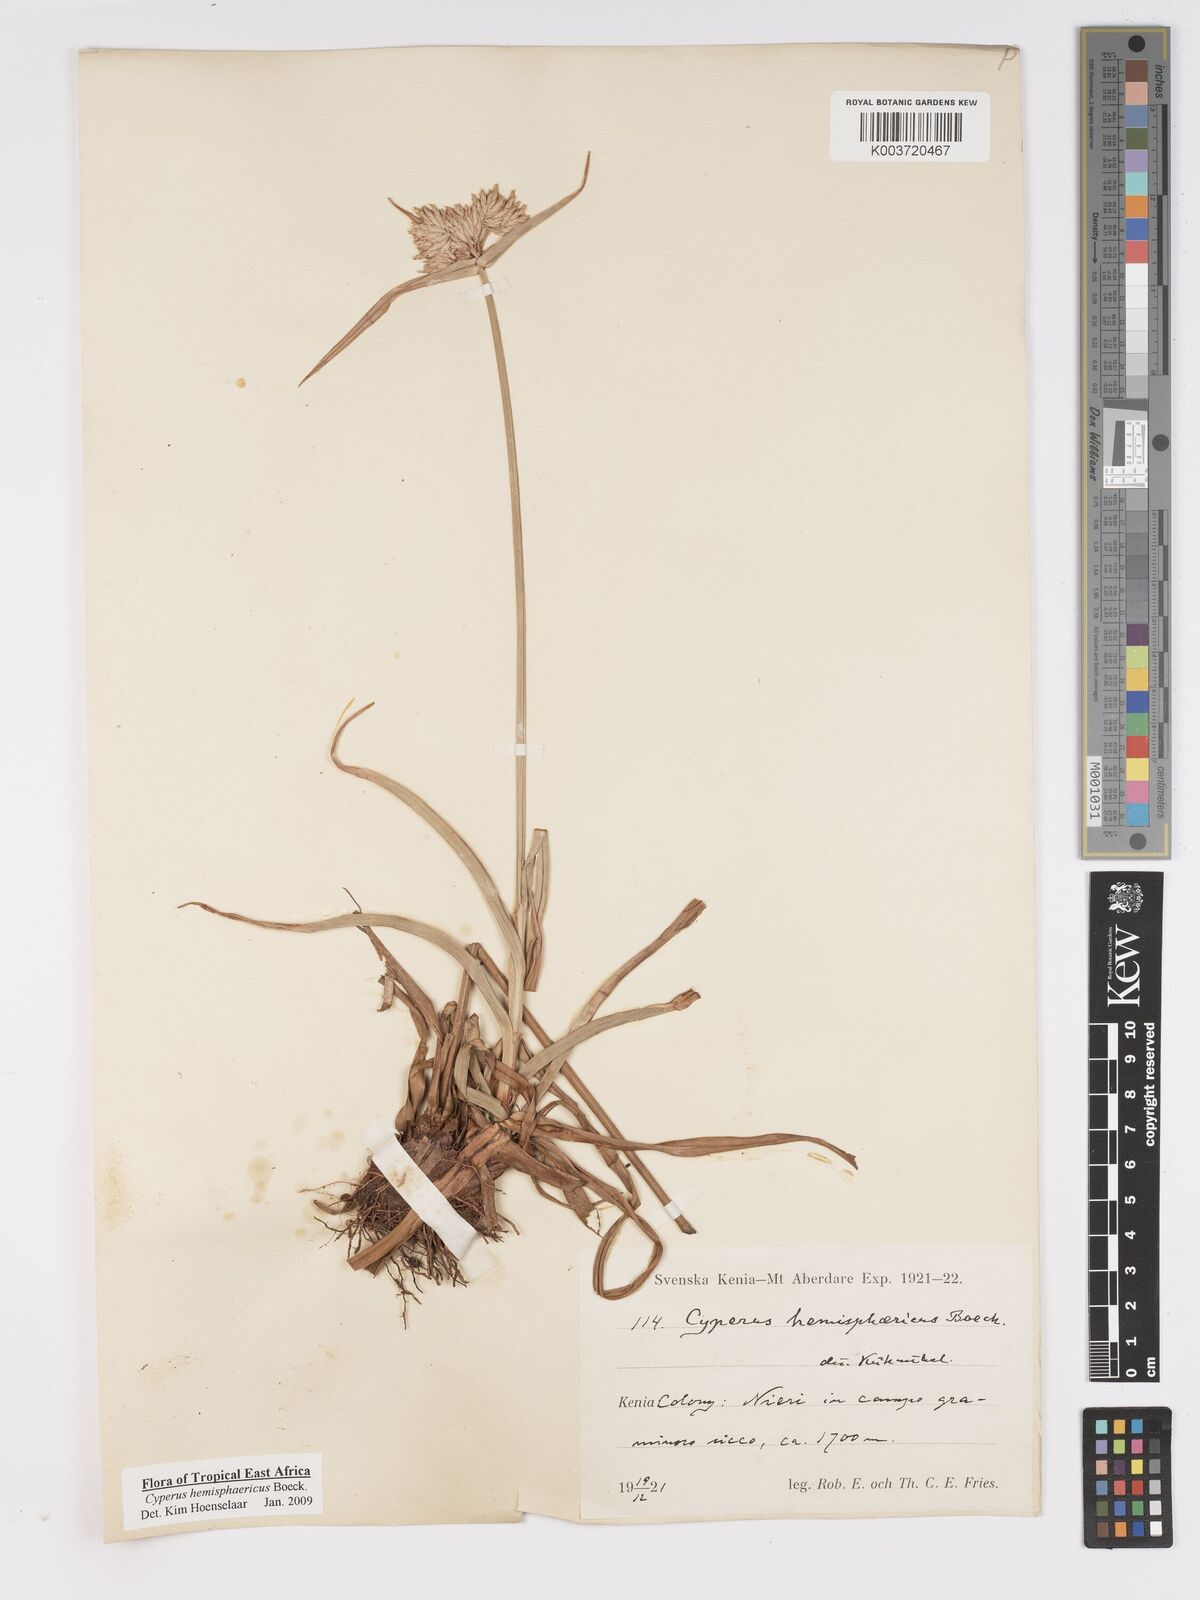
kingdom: Plantae
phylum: Tracheophyta
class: Liliopsida
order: Poales
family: Cyperaceae
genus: Cyperus
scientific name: Cyperus hemisphaericus
